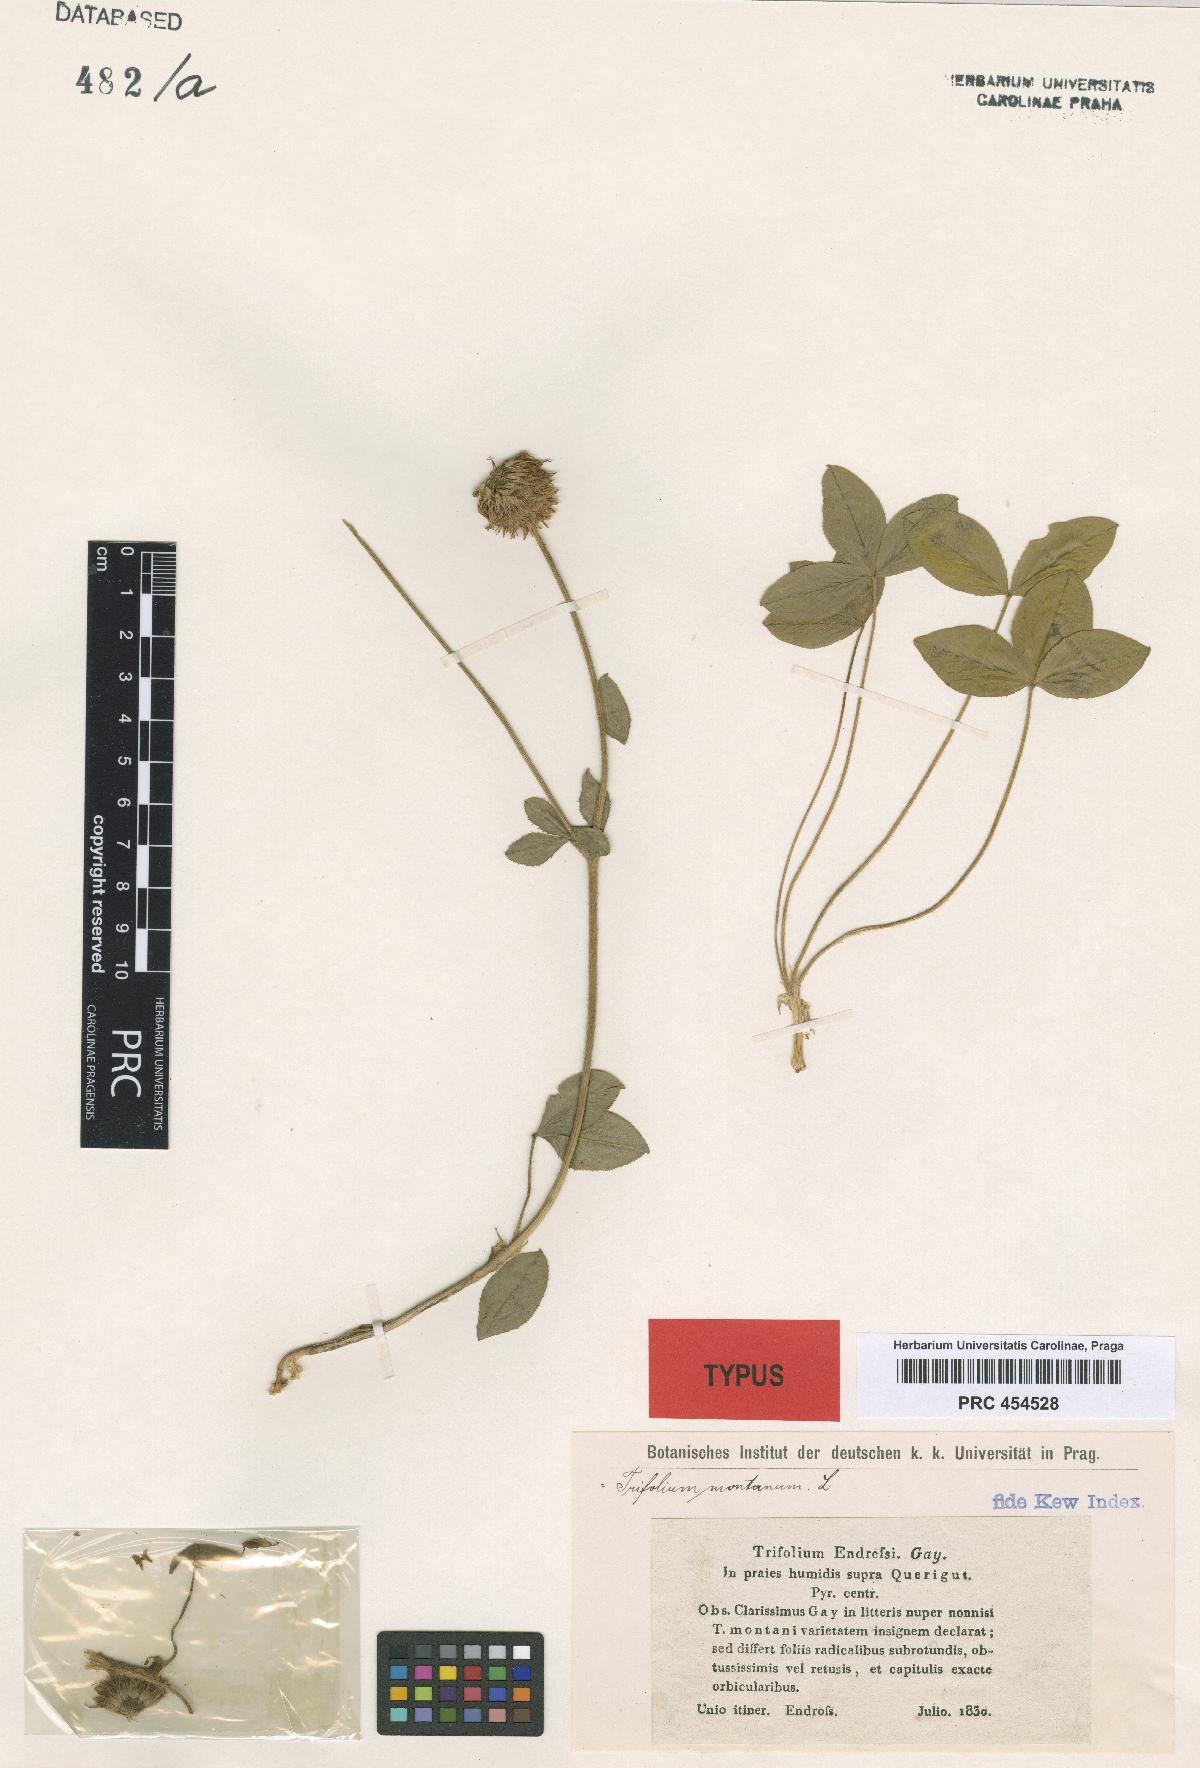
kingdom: Plantae
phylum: Tracheophyta
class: Magnoliopsida
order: Fabales
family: Fabaceae
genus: Trifolium
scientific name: Trifolium montanum
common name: Mountain clover
